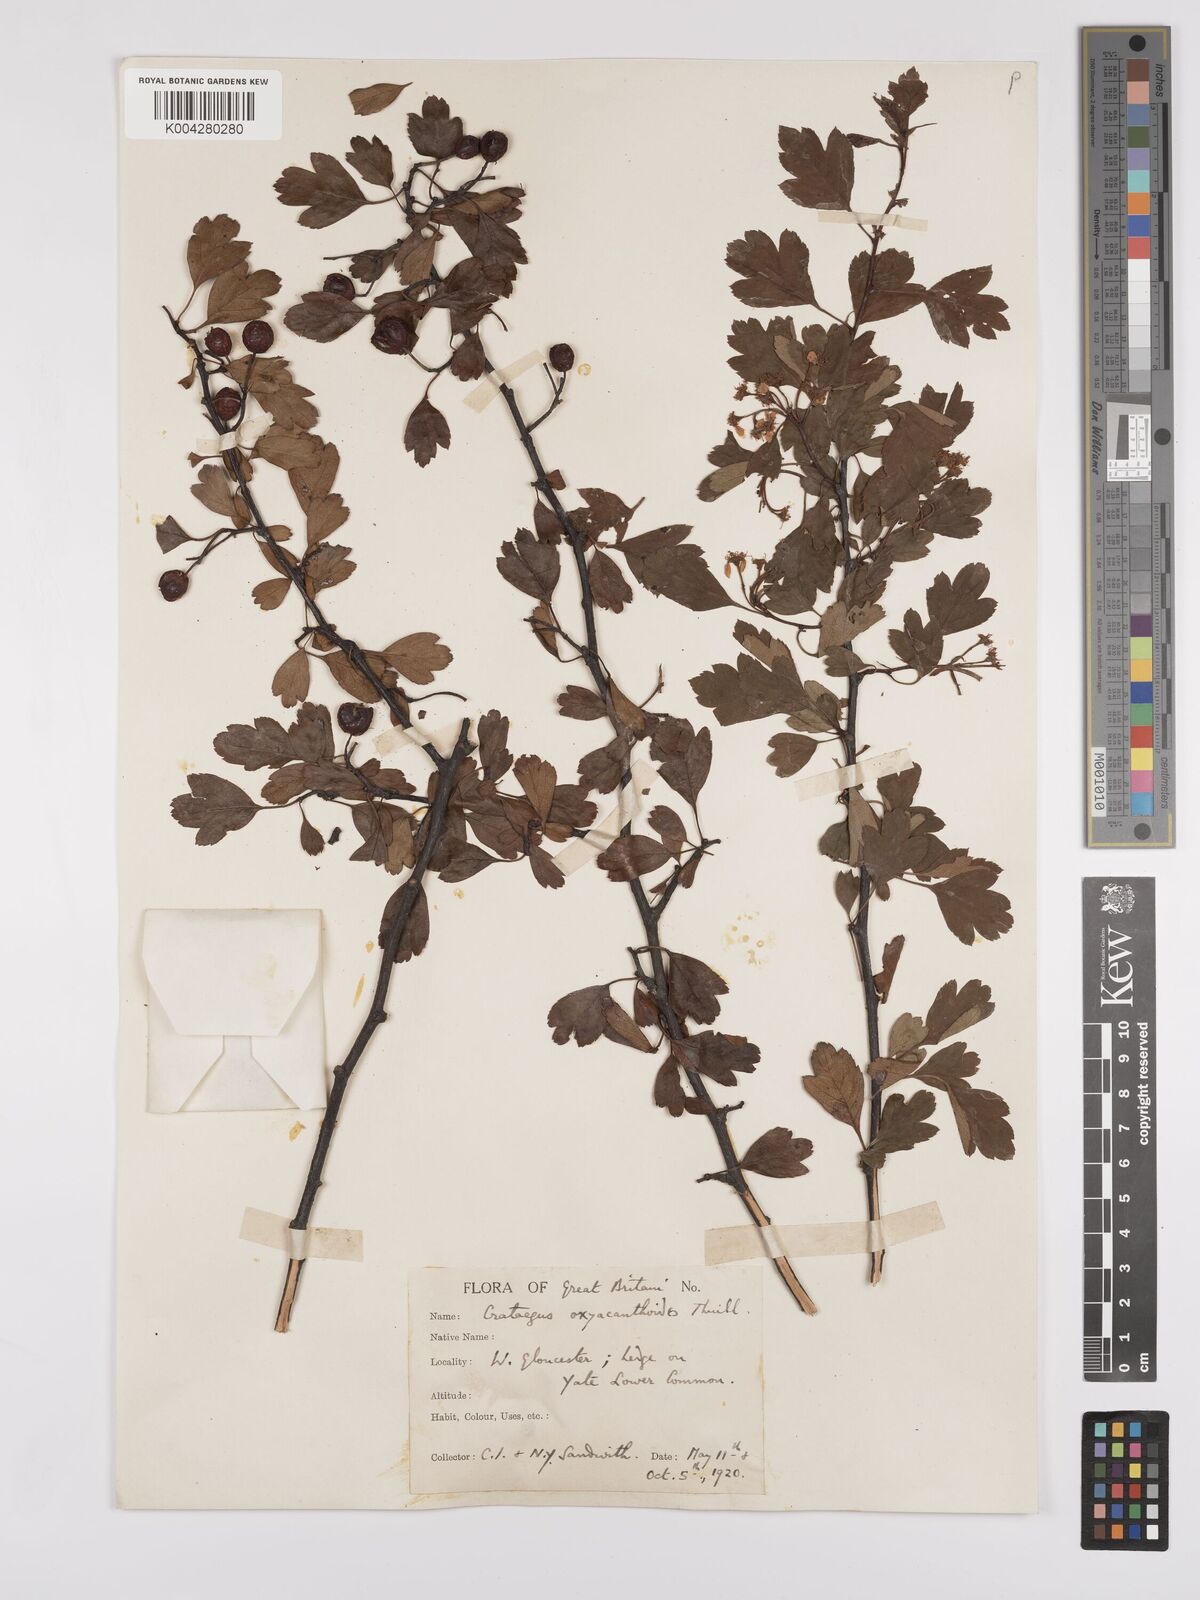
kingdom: Plantae
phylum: Tracheophyta
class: Magnoliopsida
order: Rosales
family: Rosaceae
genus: Crataegus
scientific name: Crataegus laevigata
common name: Midland hawthorn
